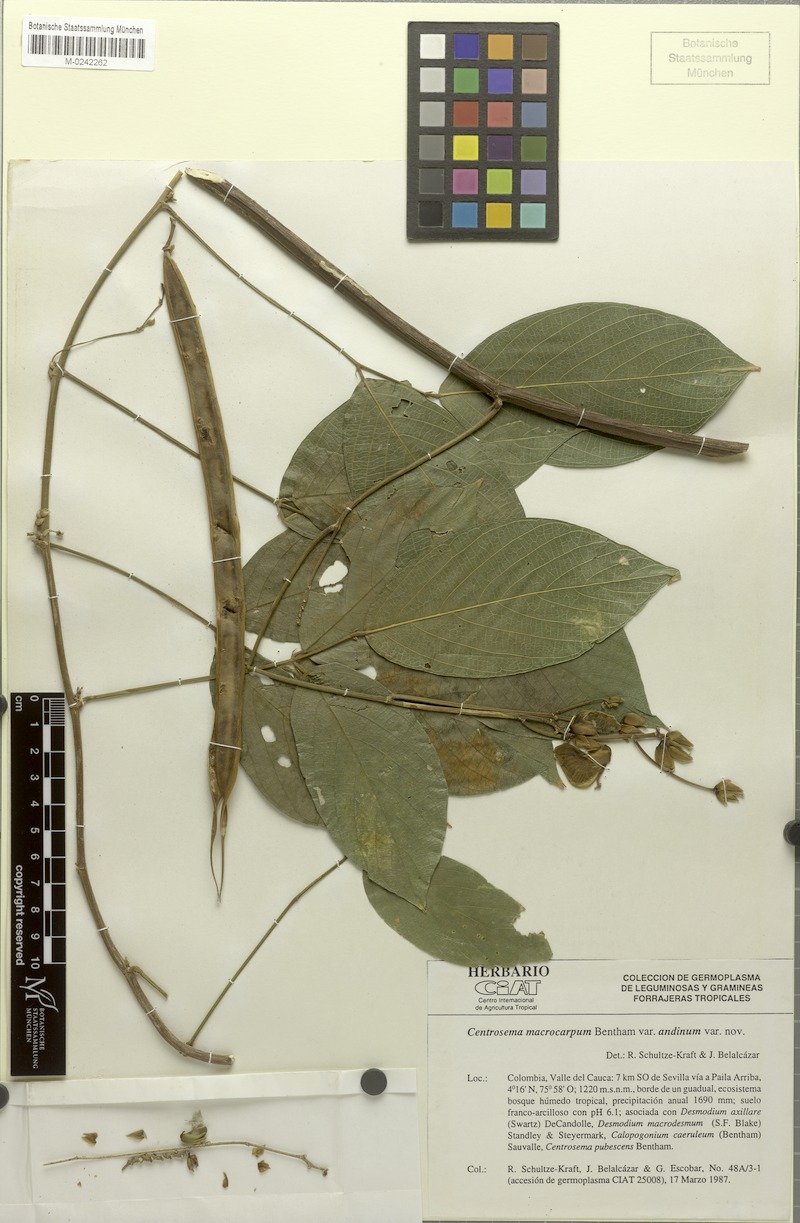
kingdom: Plantae
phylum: Tracheophyta
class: Magnoliopsida
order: Fabales
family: Fabaceae
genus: Centrosema
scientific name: Centrosema macrocarpum
